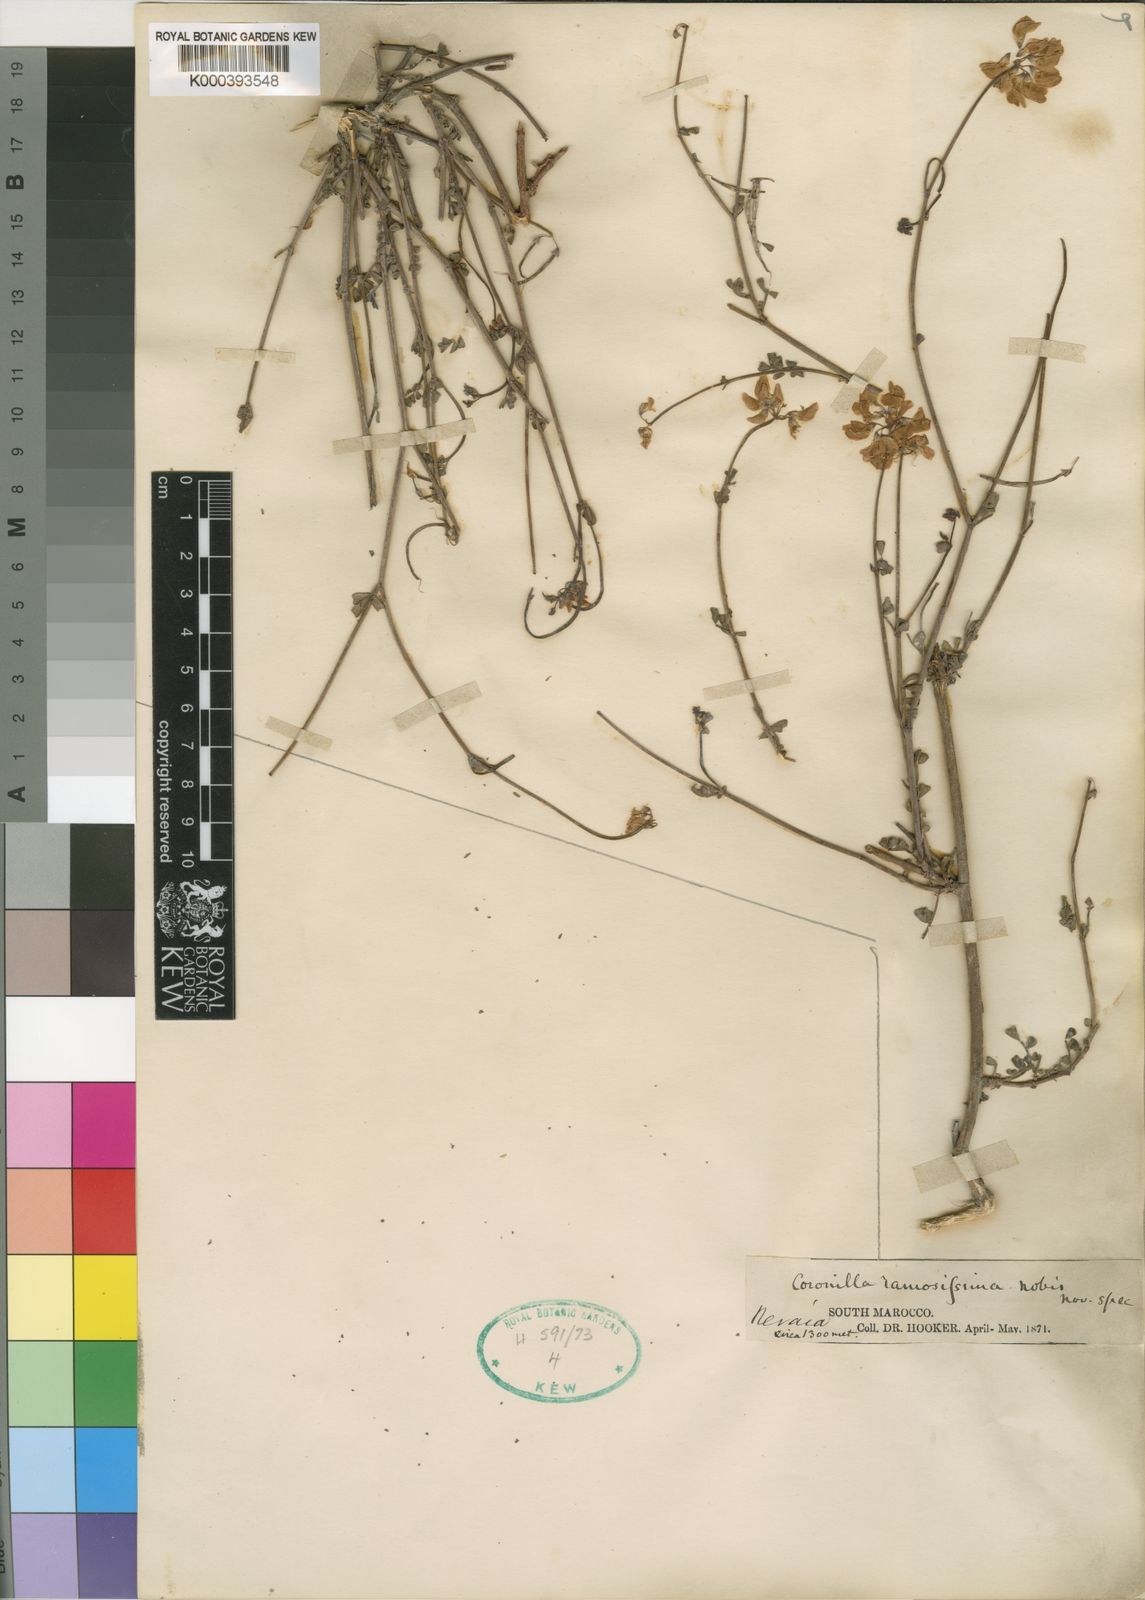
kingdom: Plantae
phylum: Tracheophyta
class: Magnoliopsida
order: Fabales
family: Fabaceae
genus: Coronilla
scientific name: Coronilla ramosissima
